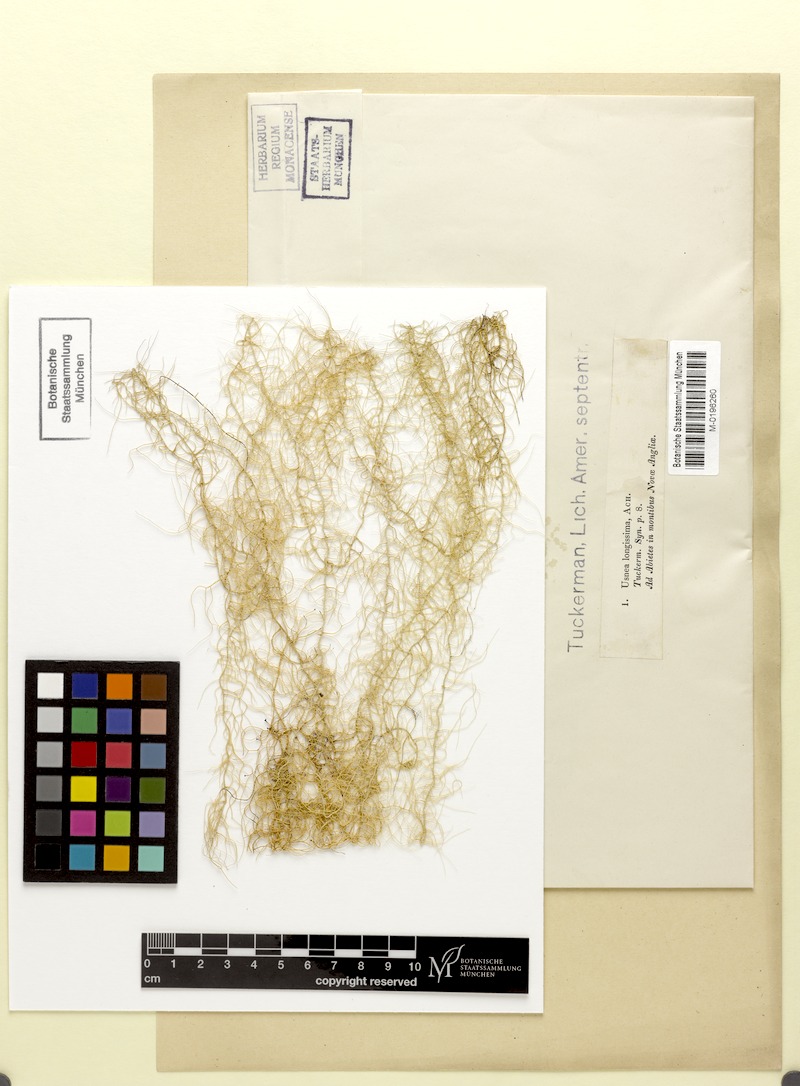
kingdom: Fungi
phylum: Ascomycota
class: Lecanoromycetes
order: Lecanorales
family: Parmeliaceae
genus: Dolichousnea
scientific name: Dolichousnea longissima
